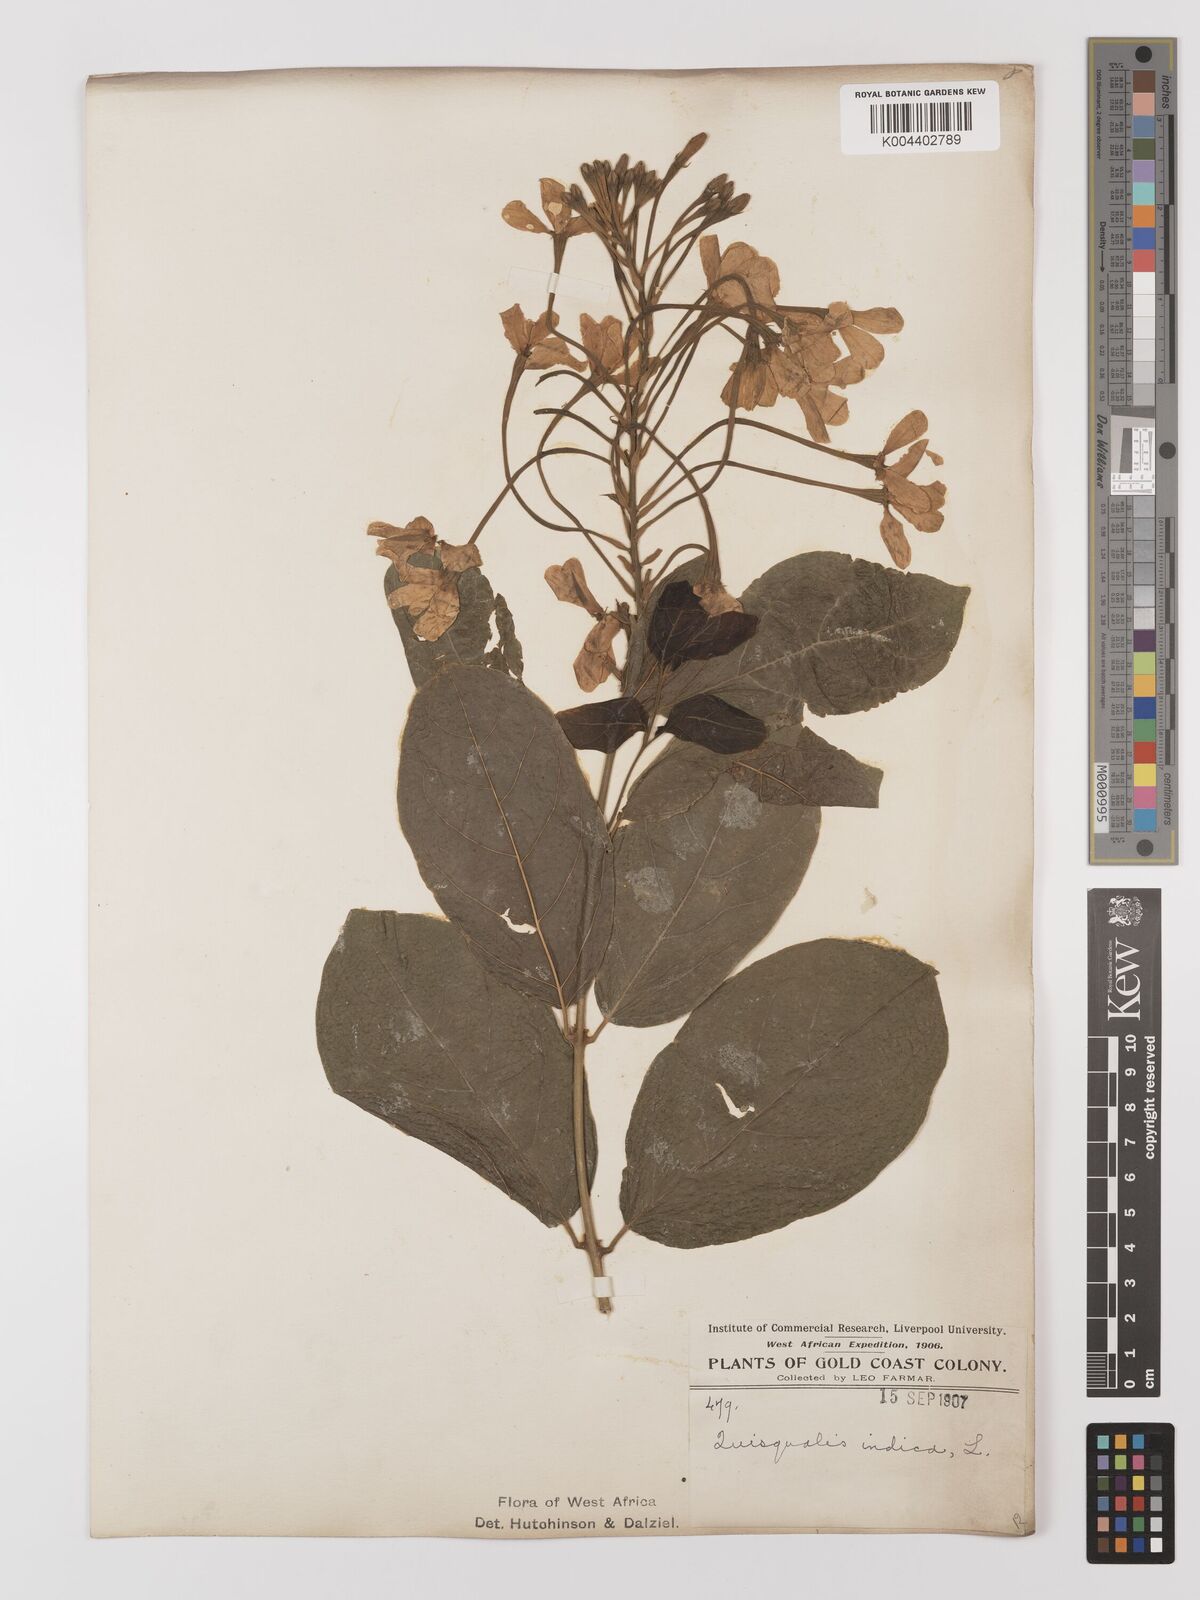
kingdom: Plantae
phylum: Tracheophyta
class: Magnoliopsida
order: Myrtales
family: Combretaceae
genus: Combretum
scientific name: Combretum
